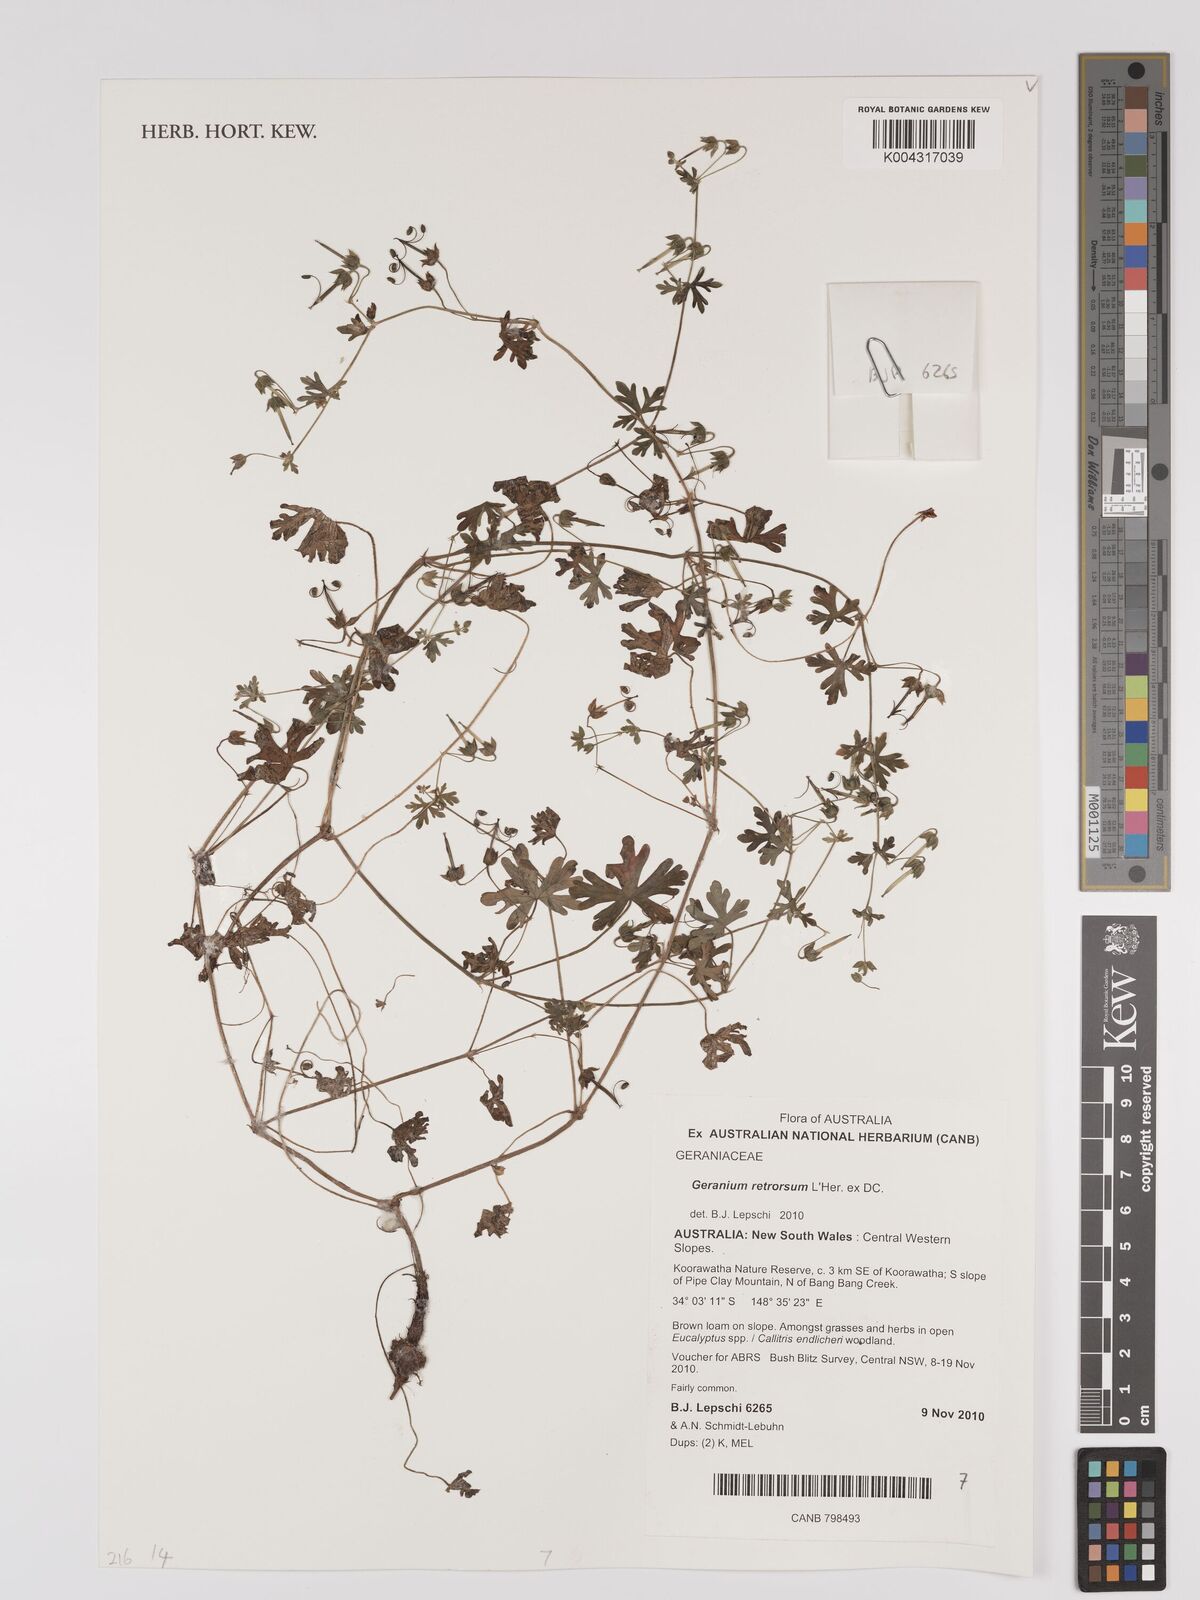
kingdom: Plantae
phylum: Tracheophyta
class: Magnoliopsida
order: Geraniales
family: Geraniaceae
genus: Geranium
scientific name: Geranium retrorsum
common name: New zealand geranium
